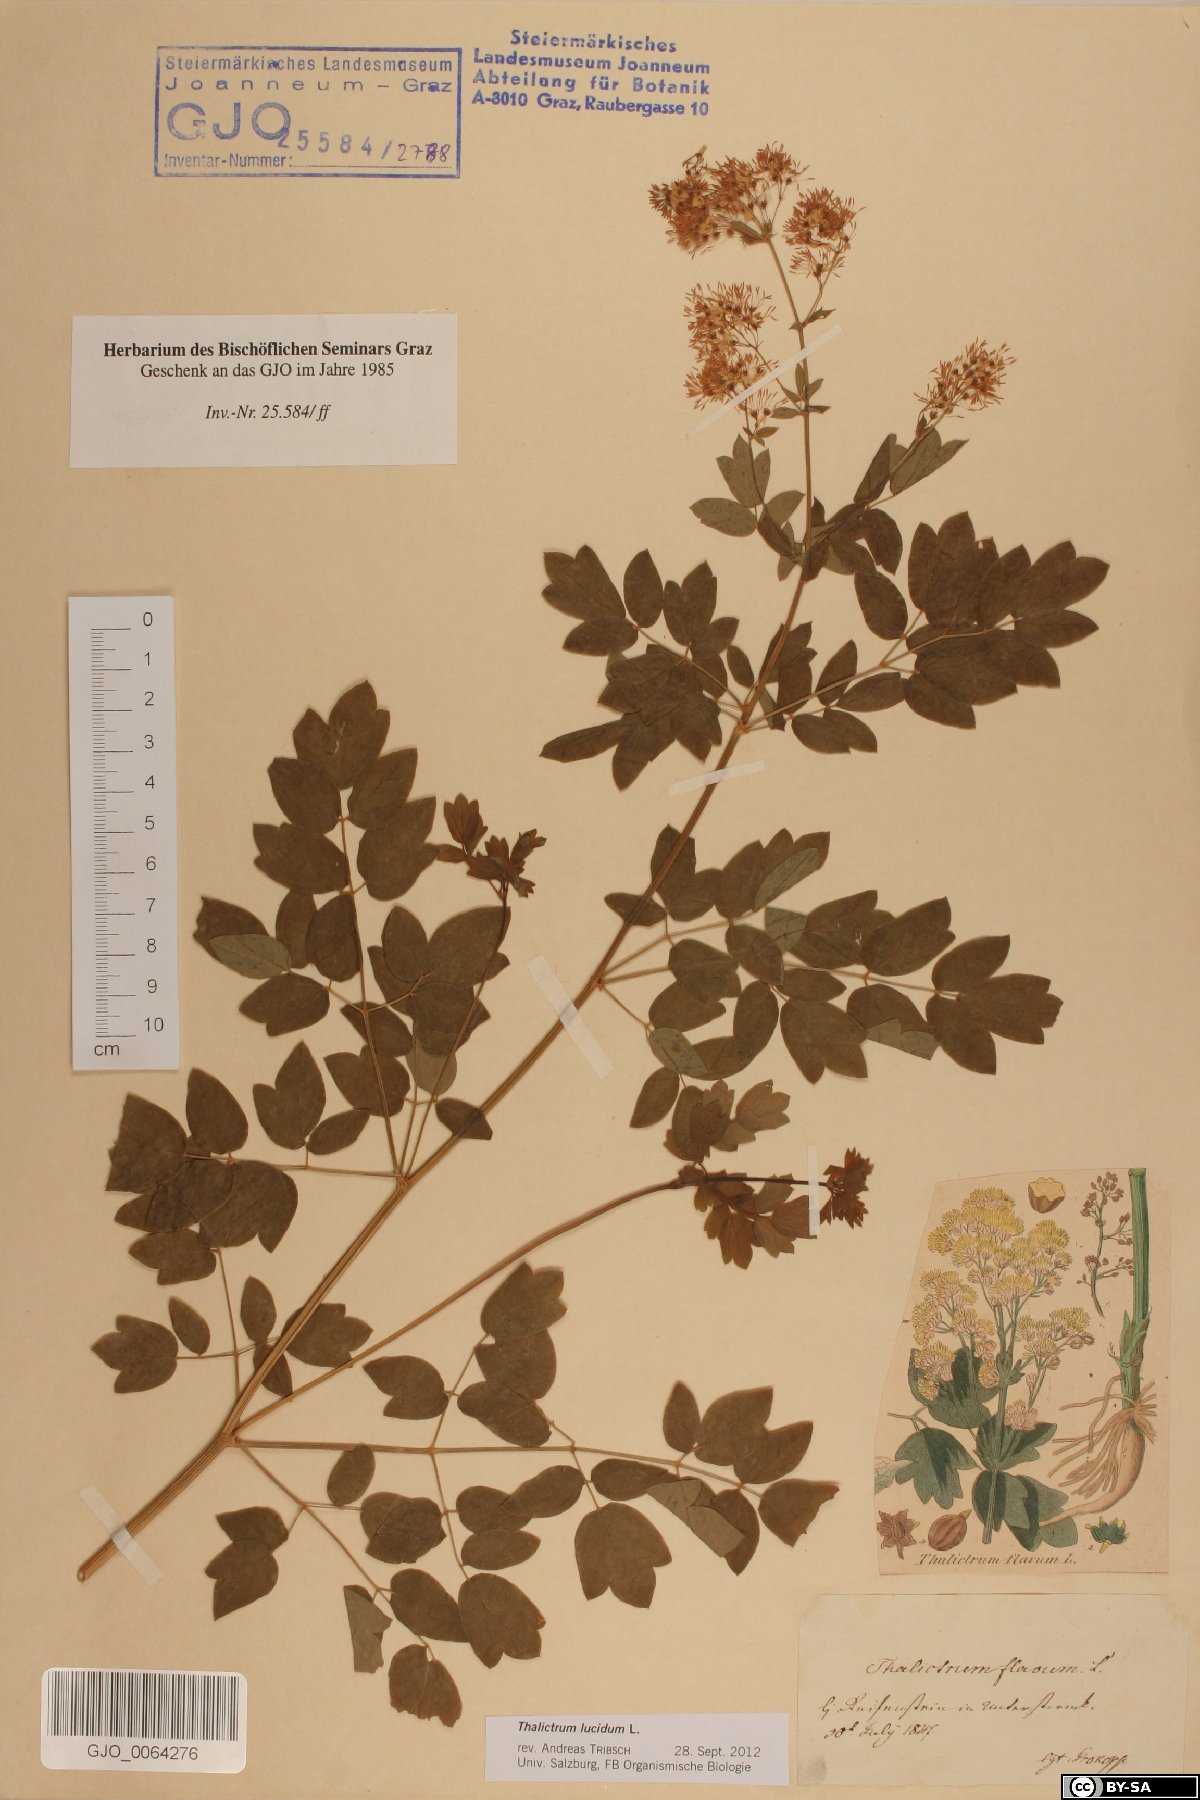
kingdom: Plantae
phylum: Tracheophyta
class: Magnoliopsida
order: Ranunculales
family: Ranunculaceae
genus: Thalictrum
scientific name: Thalictrum lucidum
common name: Shining meadow-rue
